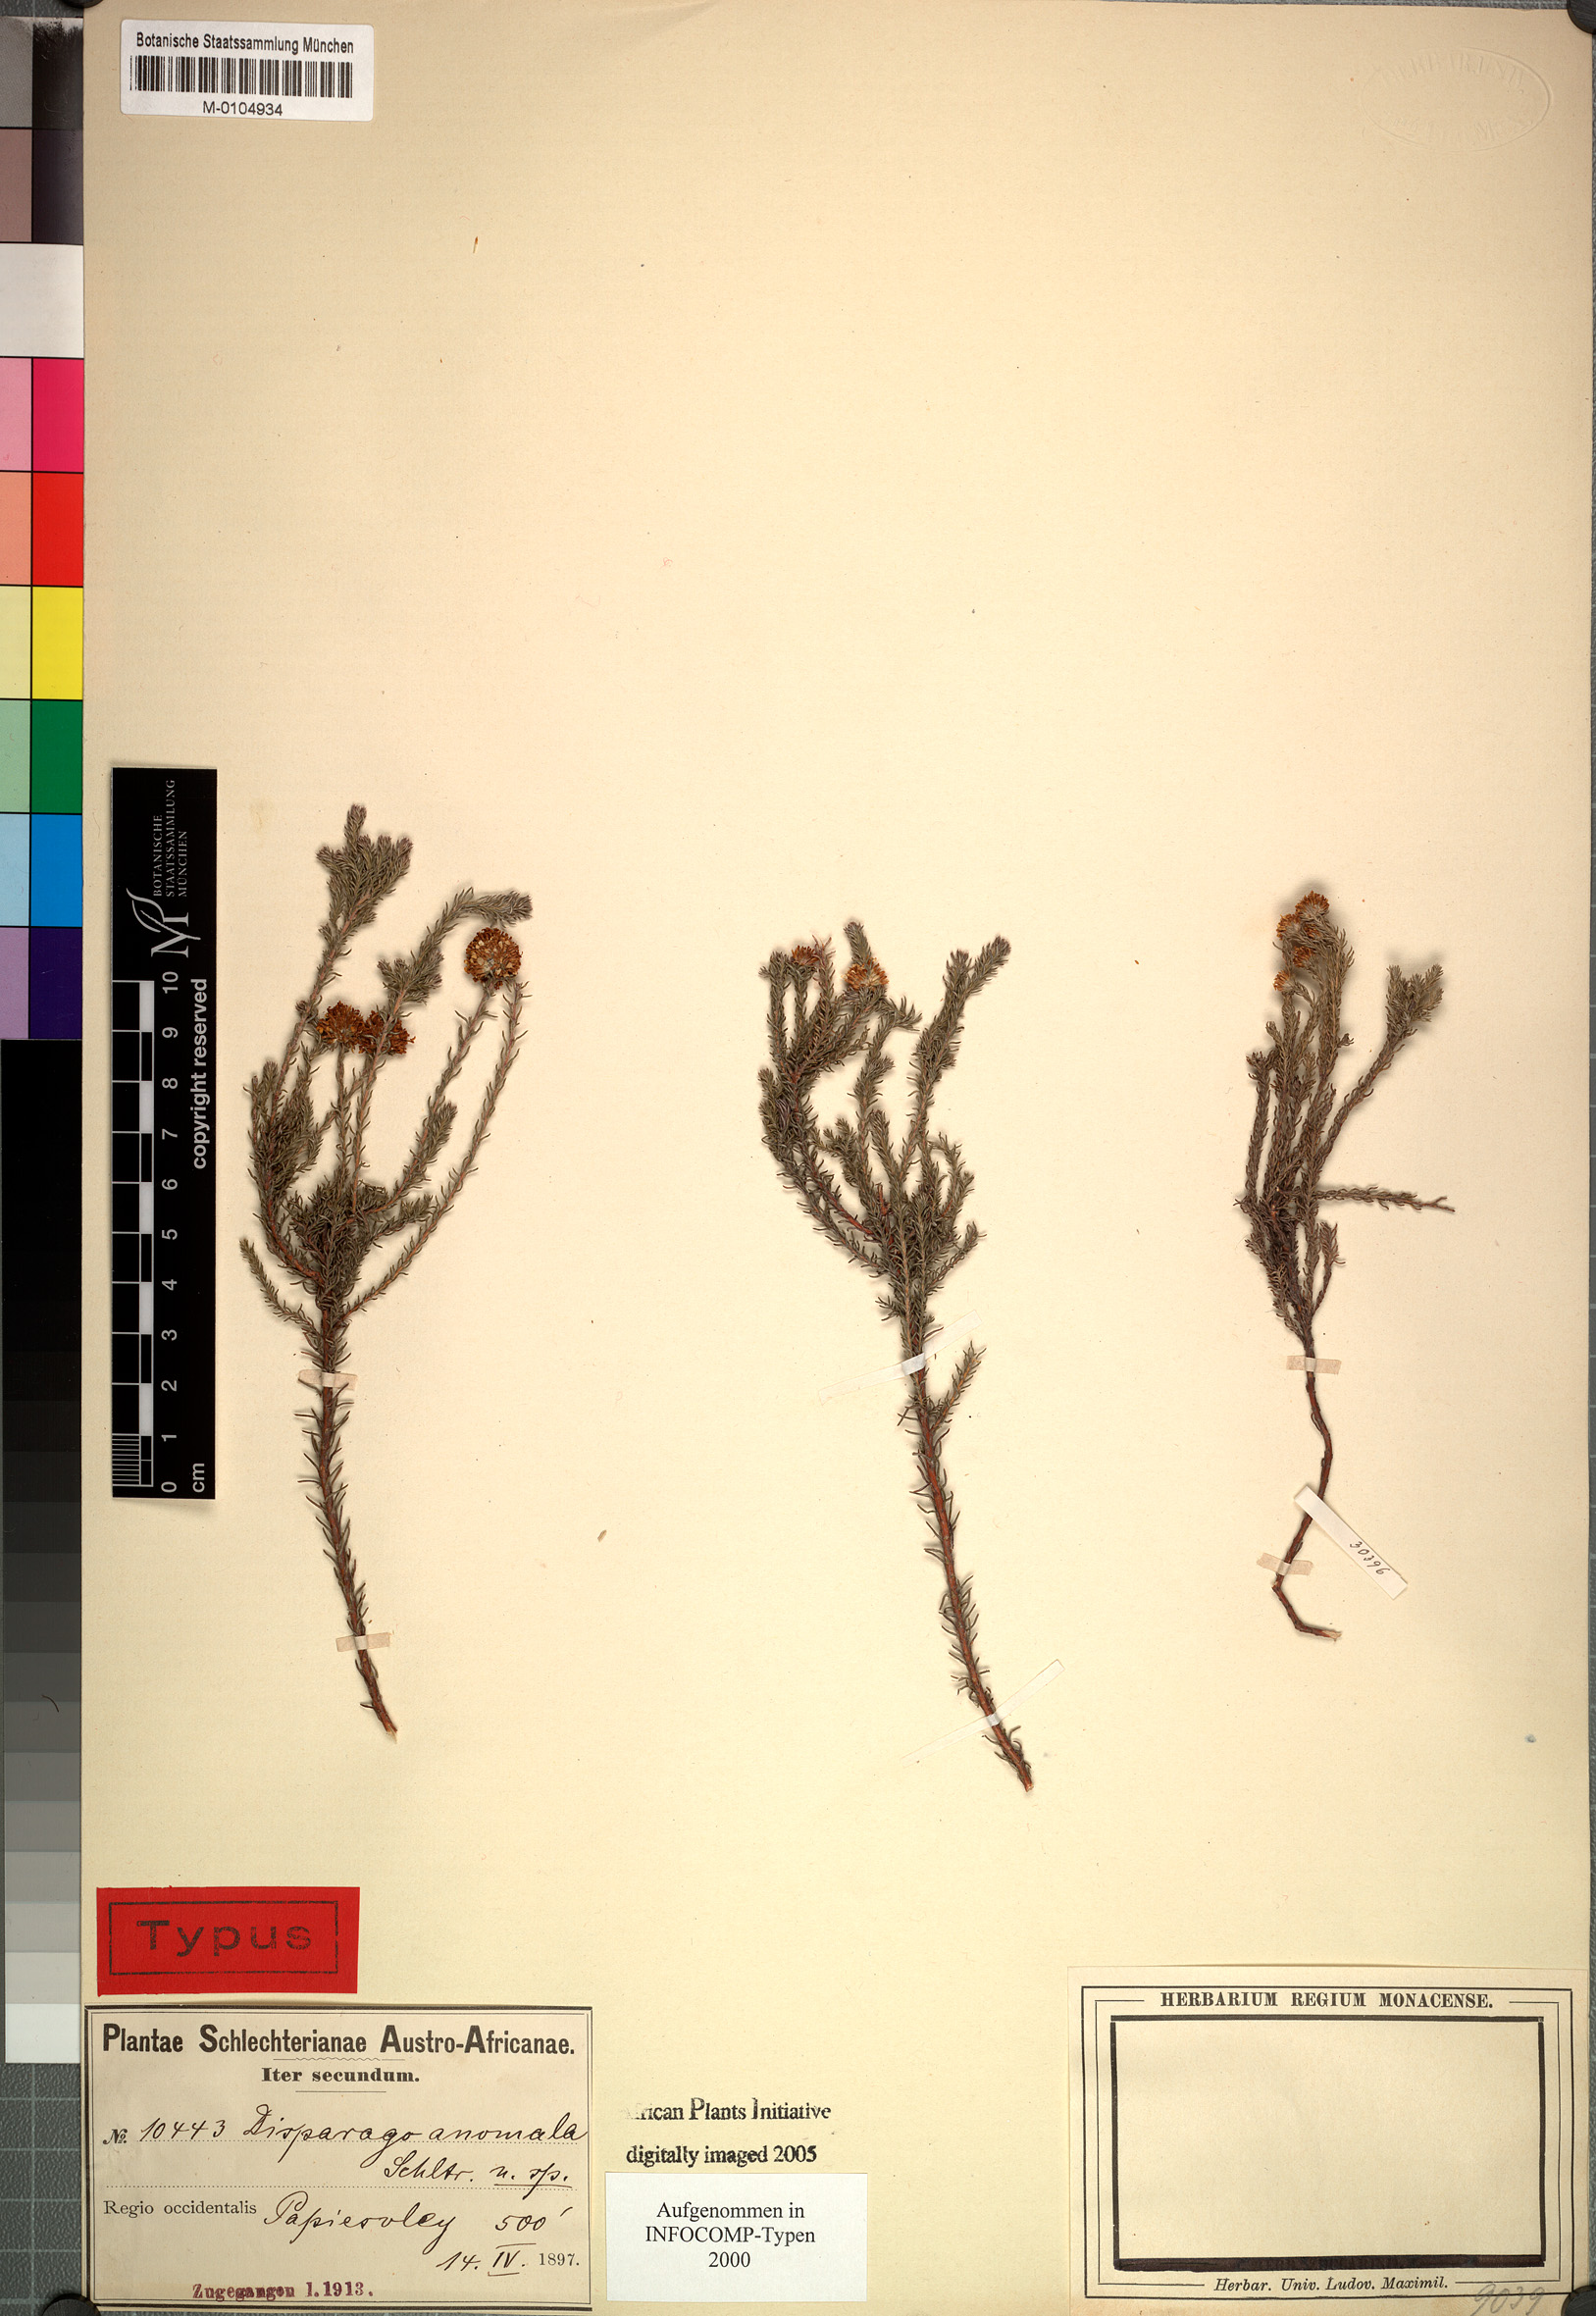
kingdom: Plantae
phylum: Tracheophyta
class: Magnoliopsida
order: Asterales
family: Asteraceae
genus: Disparago
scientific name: Disparago anomala
